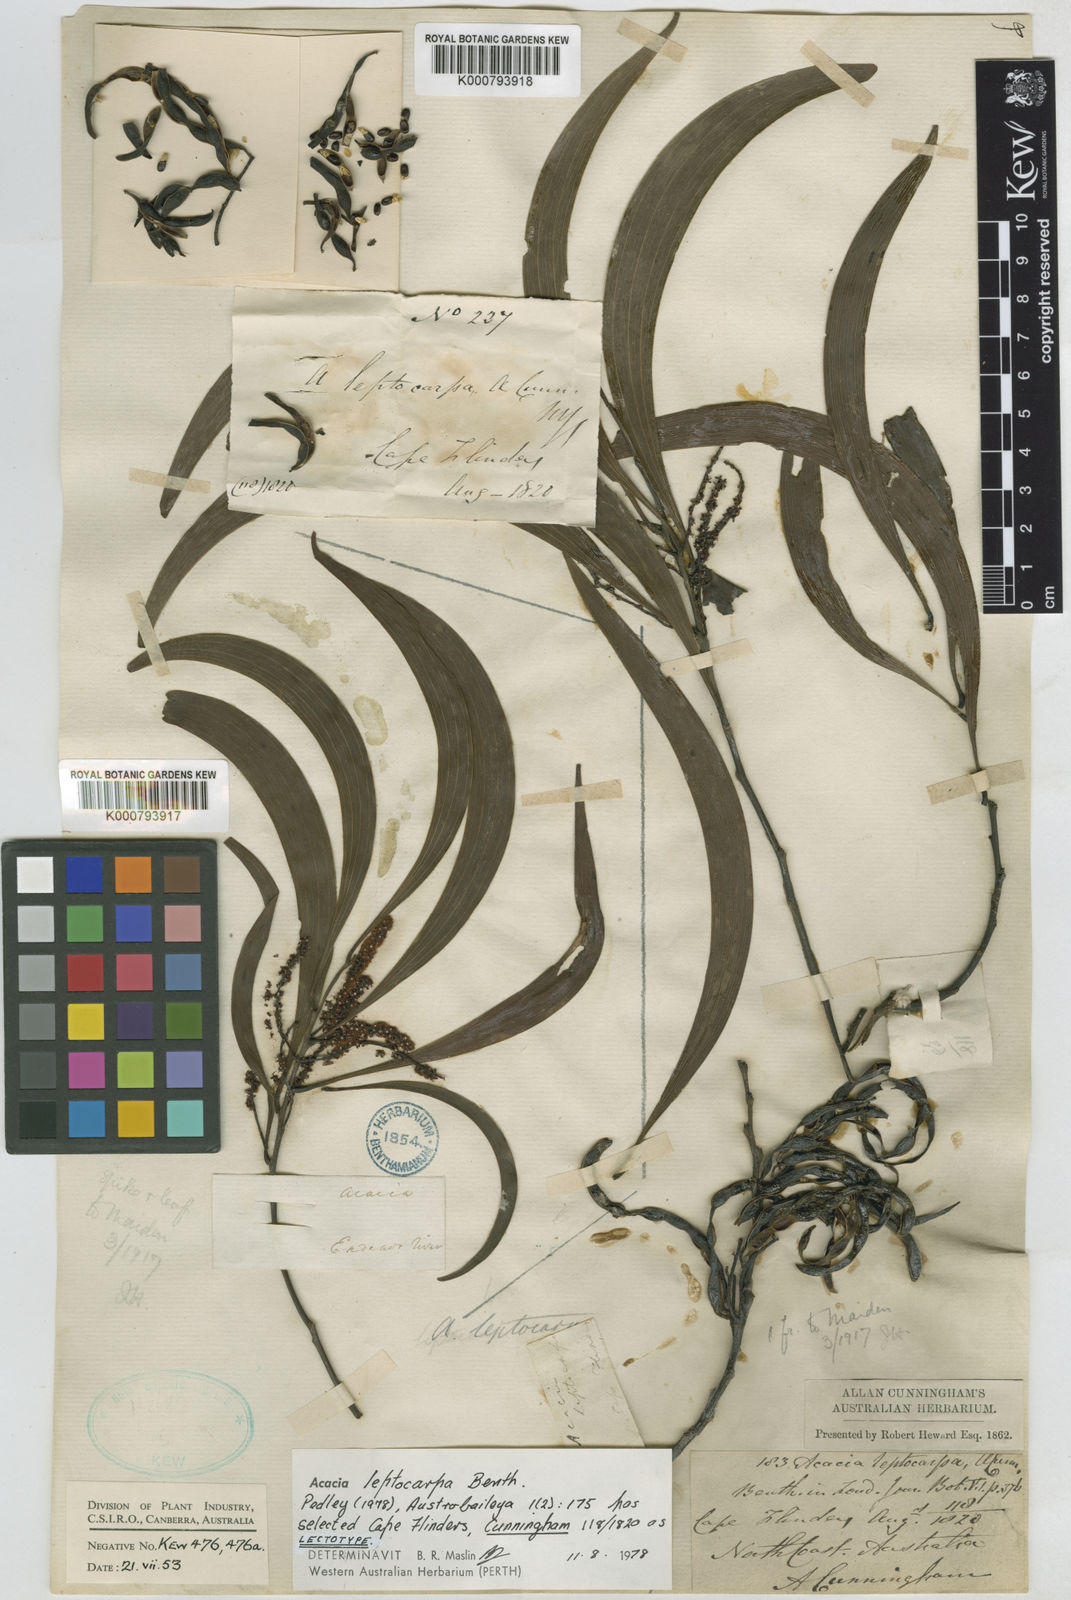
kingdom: Plantae
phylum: Tracheophyta
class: Magnoliopsida
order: Fabales
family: Fabaceae
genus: Acacia
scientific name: Acacia leptocarpa
